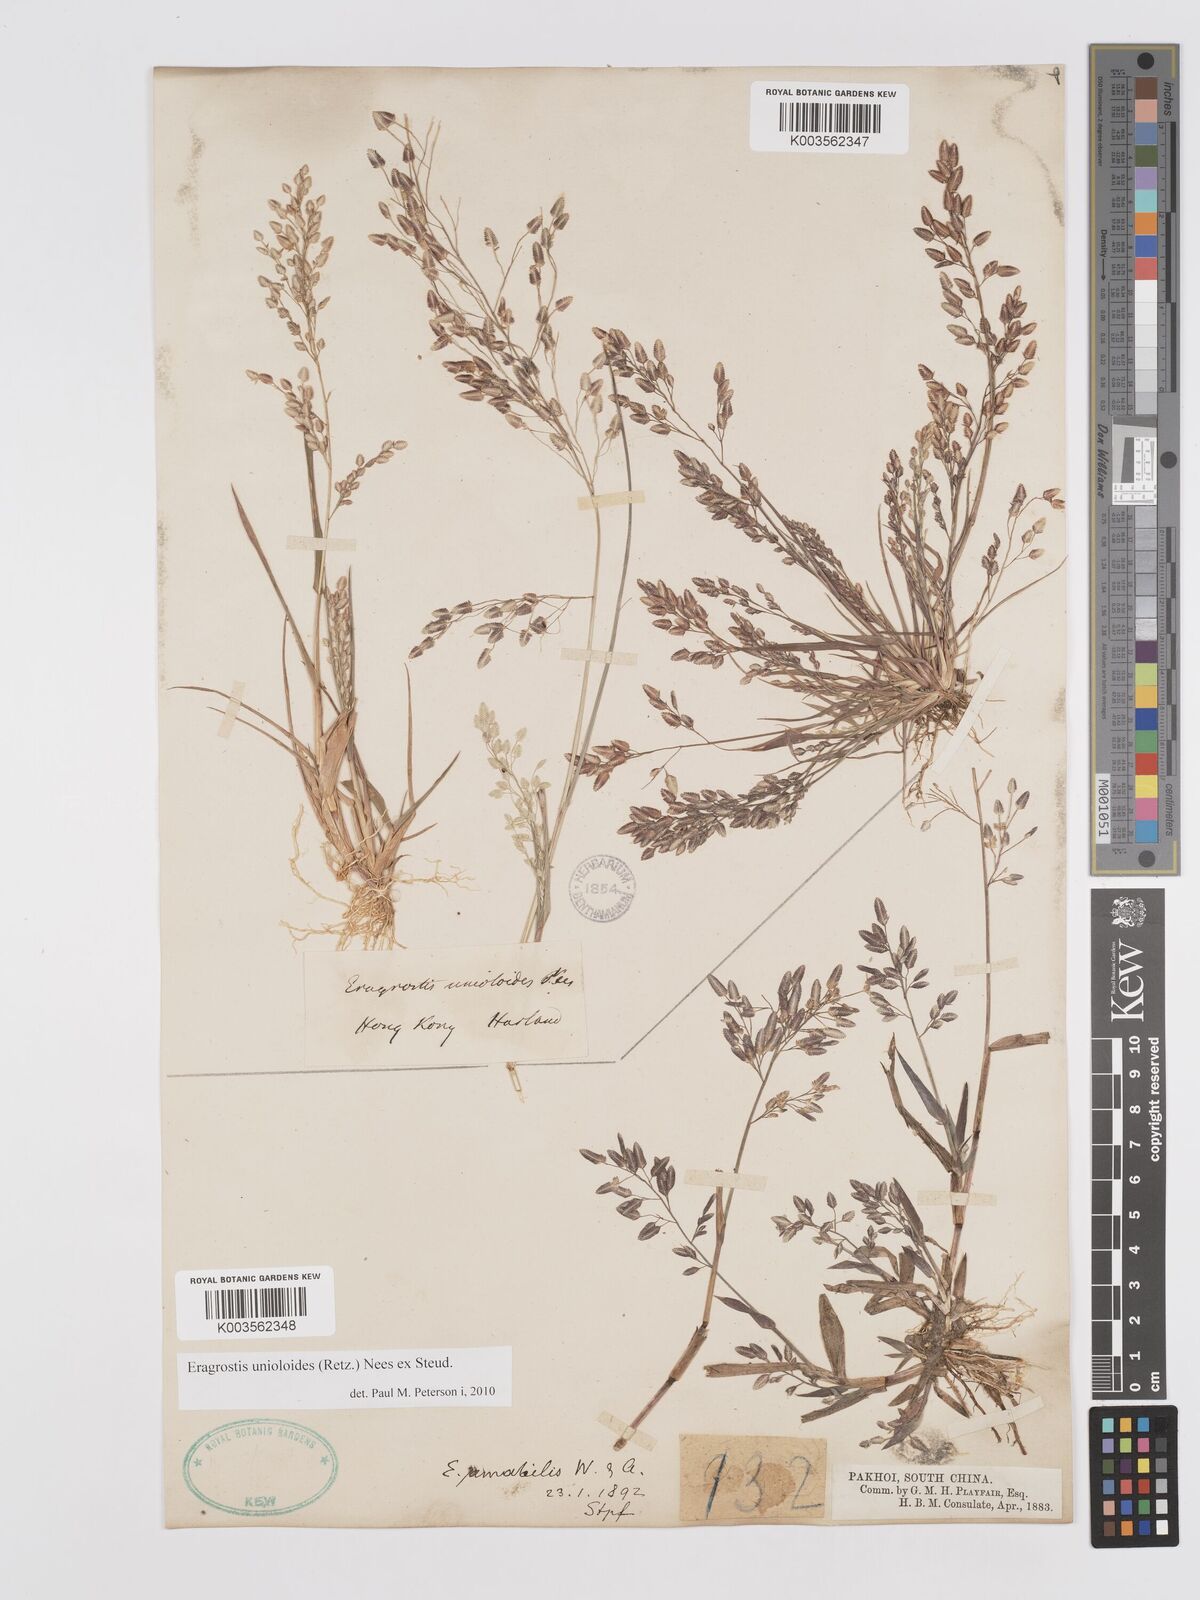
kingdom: Plantae
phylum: Tracheophyta
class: Liliopsida
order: Poales
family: Poaceae
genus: Eragrostis
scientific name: Eragrostis unioloides
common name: Chinese lovegrass
